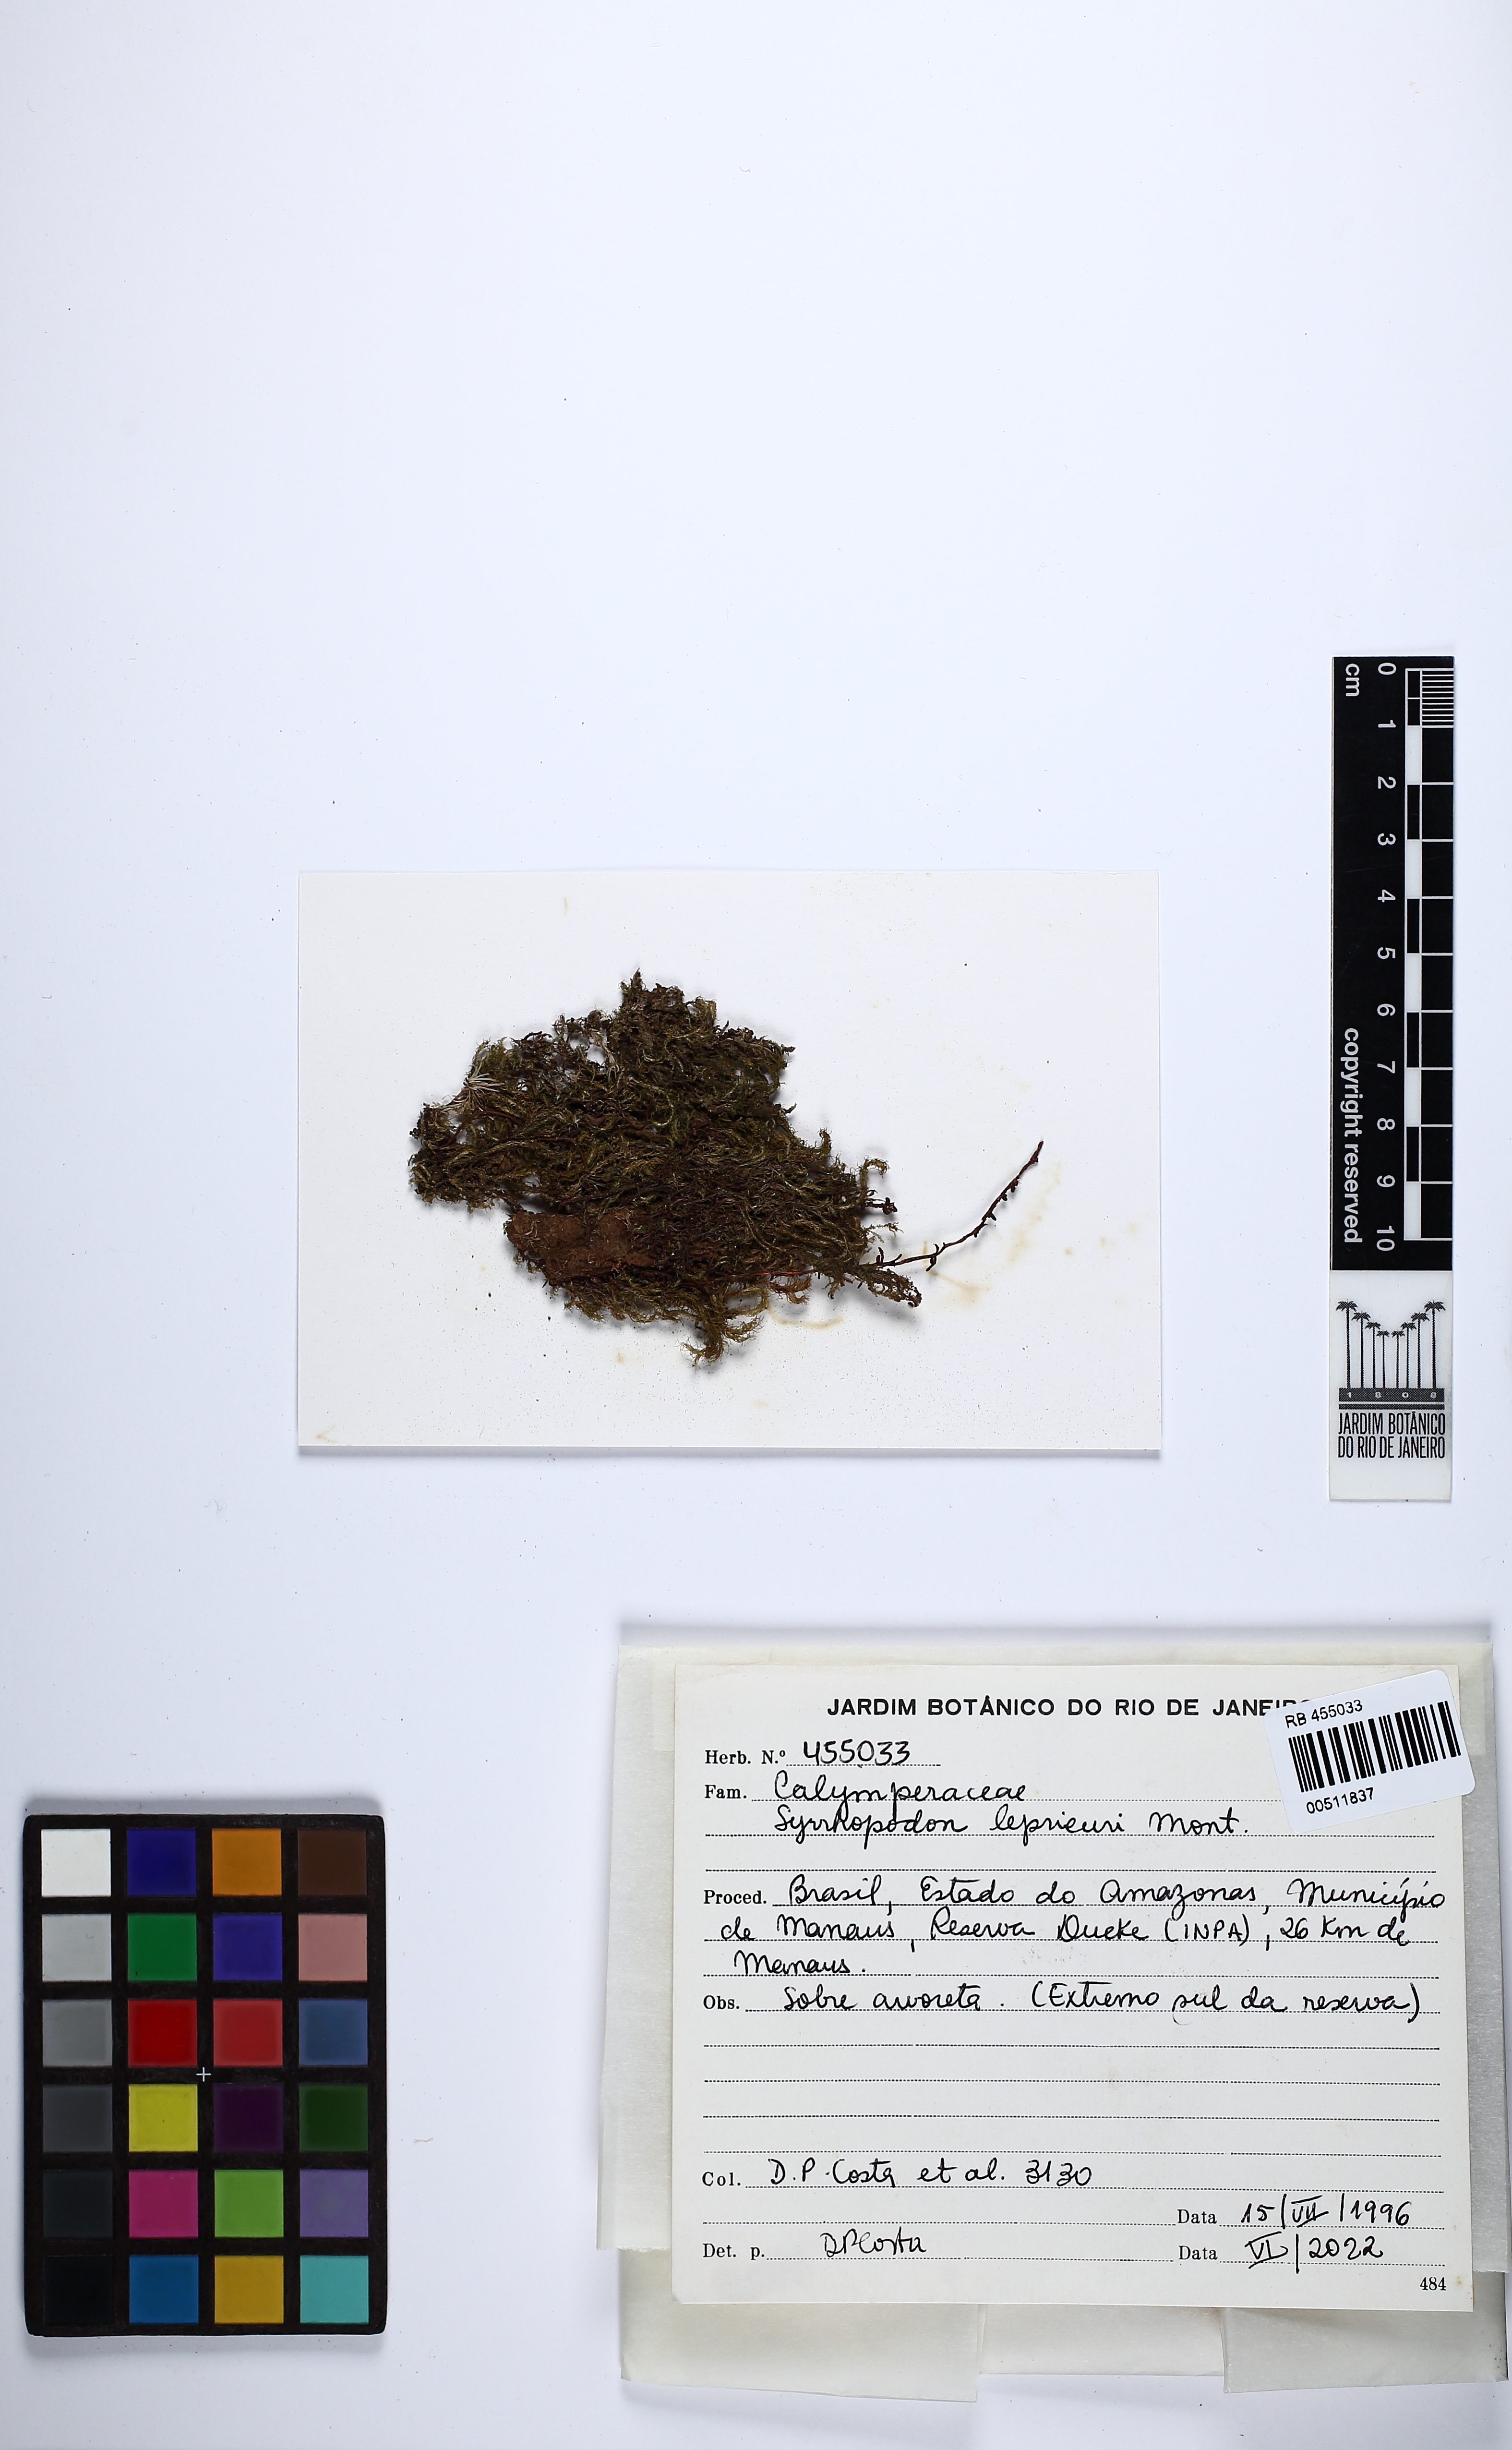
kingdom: Plantae
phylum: Bryophyta
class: Bryopsida
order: Dicranales
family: Calymperaceae
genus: Syrrhopodon
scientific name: Syrrhopodon leprieurii
